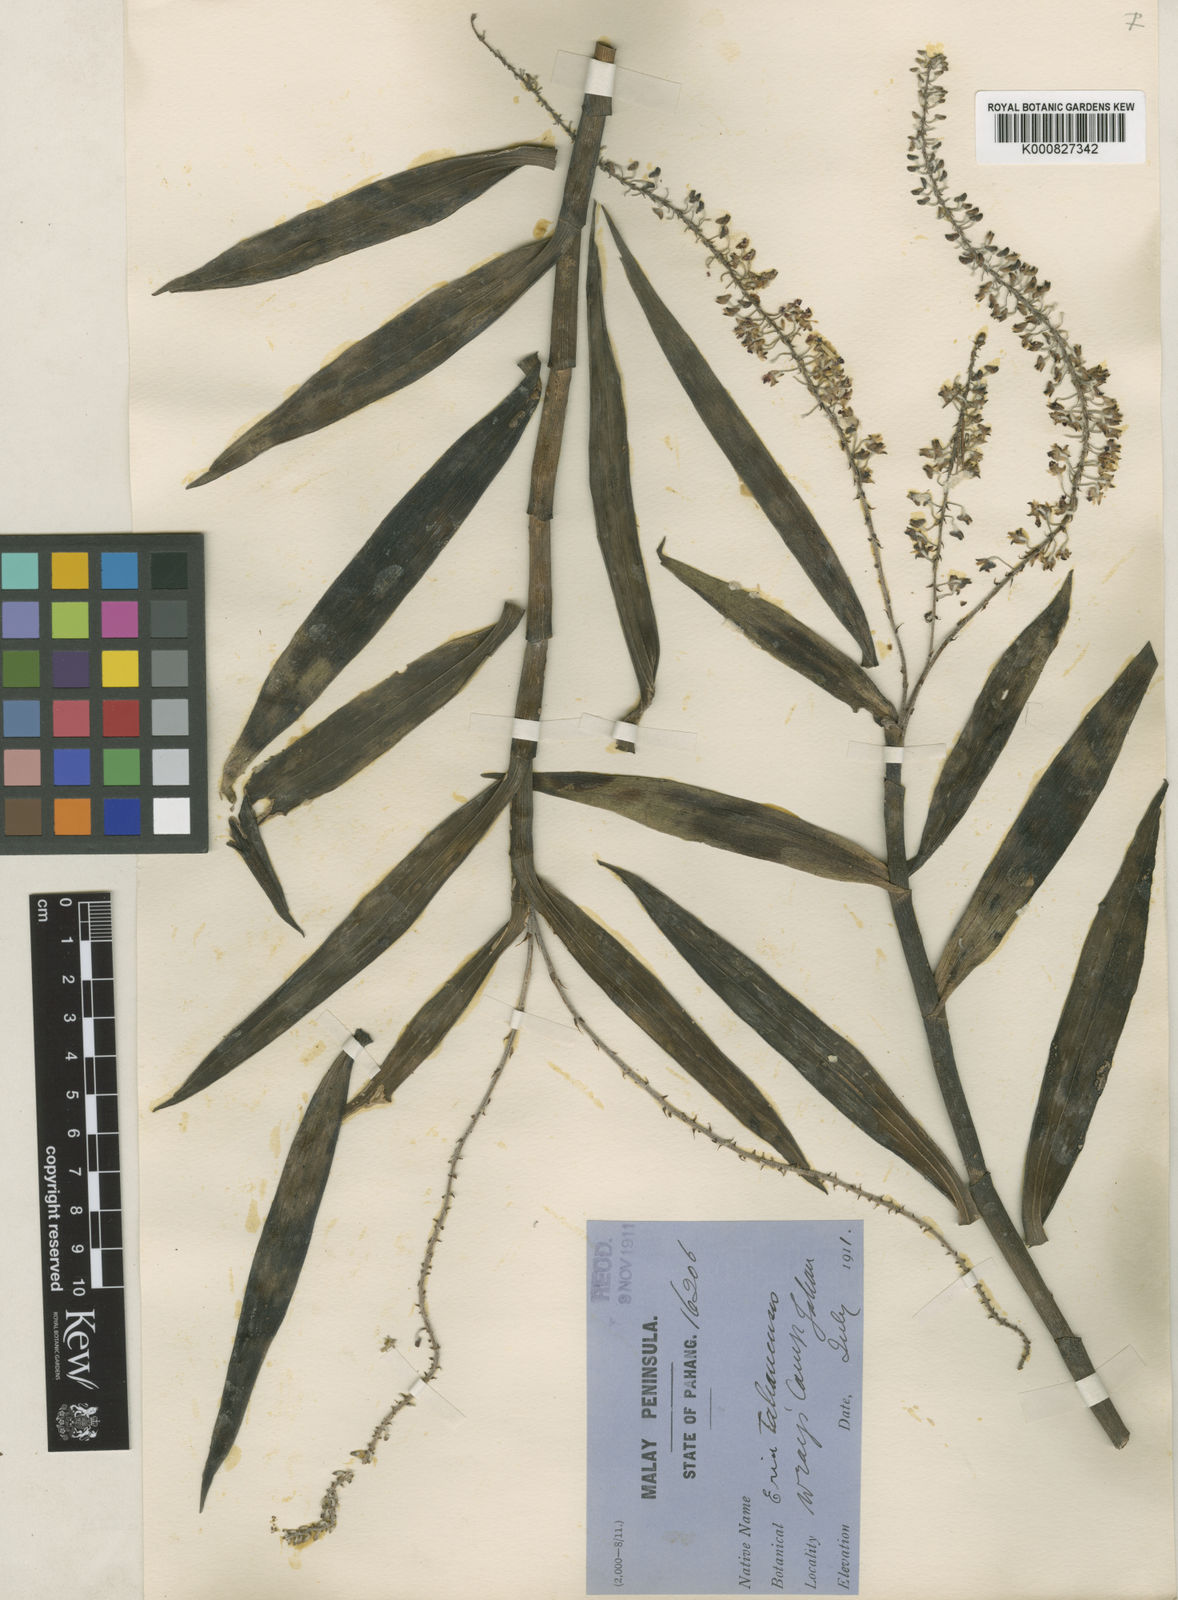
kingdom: Plantae
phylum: Tracheophyta
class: Liliopsida
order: Asparagales
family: Orchidaceae
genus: Mycaranthes
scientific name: Mycaranthes oblitterata
